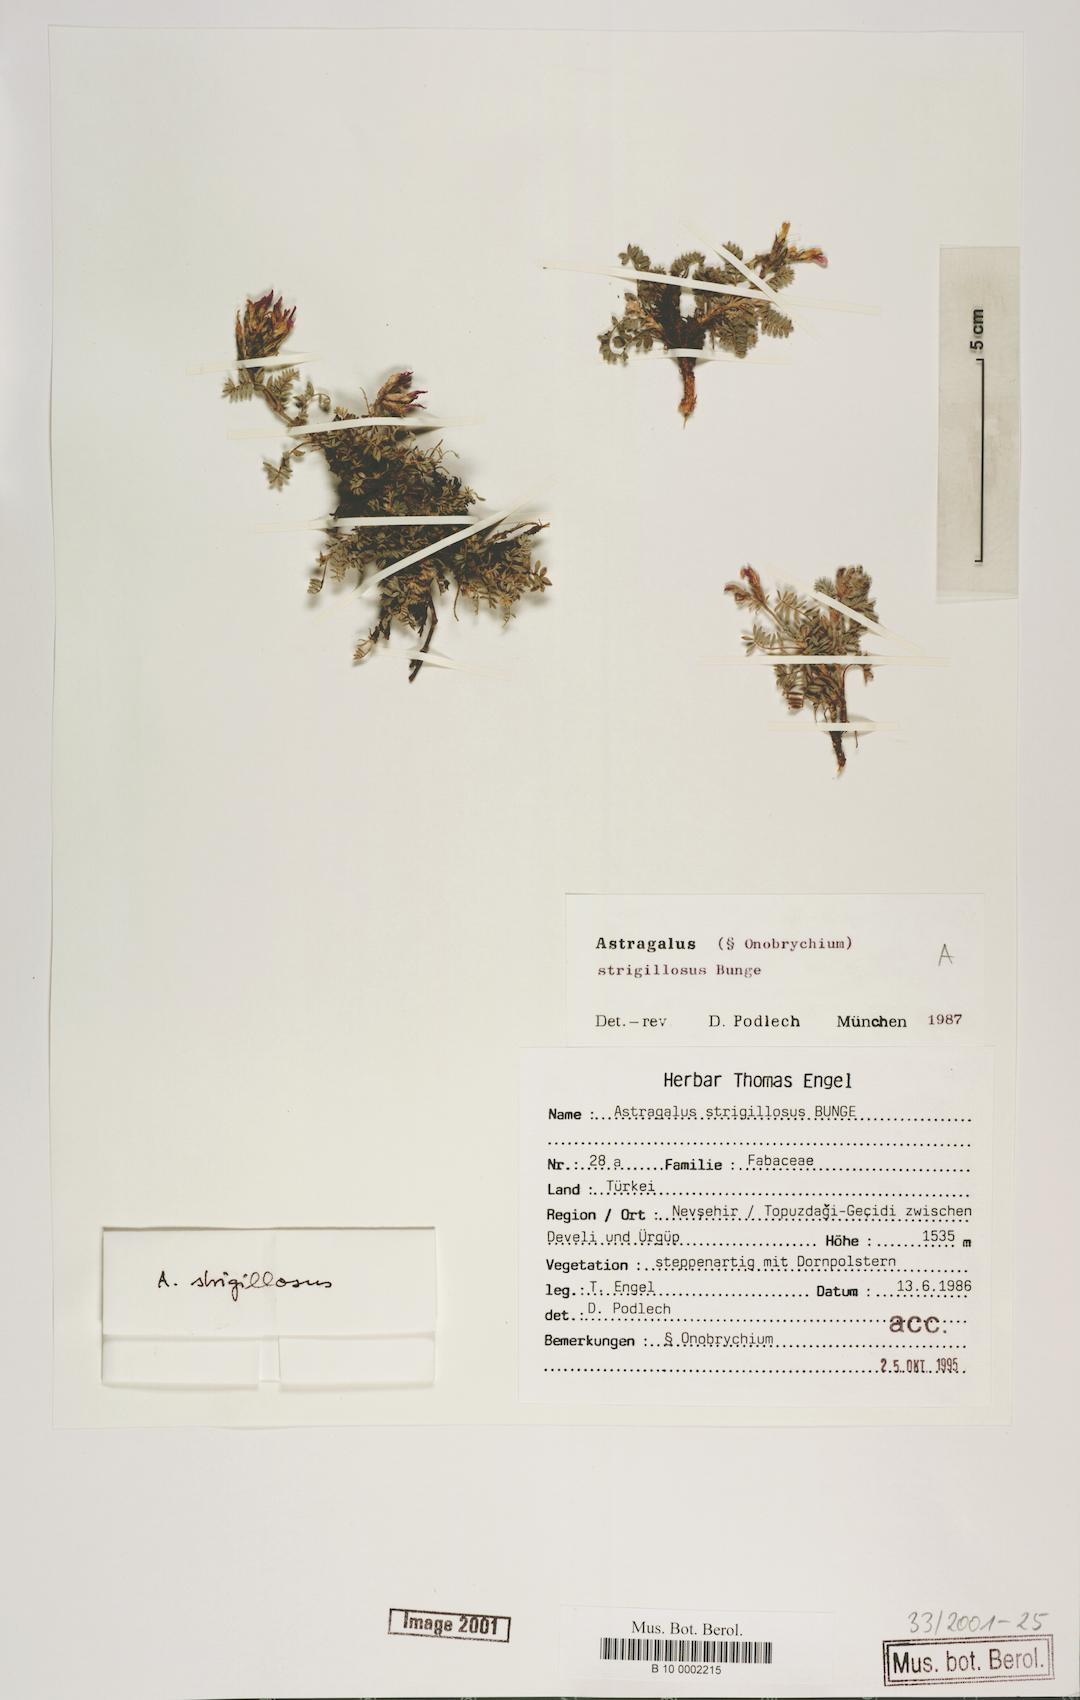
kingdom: Plantae
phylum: Tracheophyta
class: Magnoliopsida
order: Fabales
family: Fabaceae
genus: Astragalus
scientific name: Astragalus strigillosus
